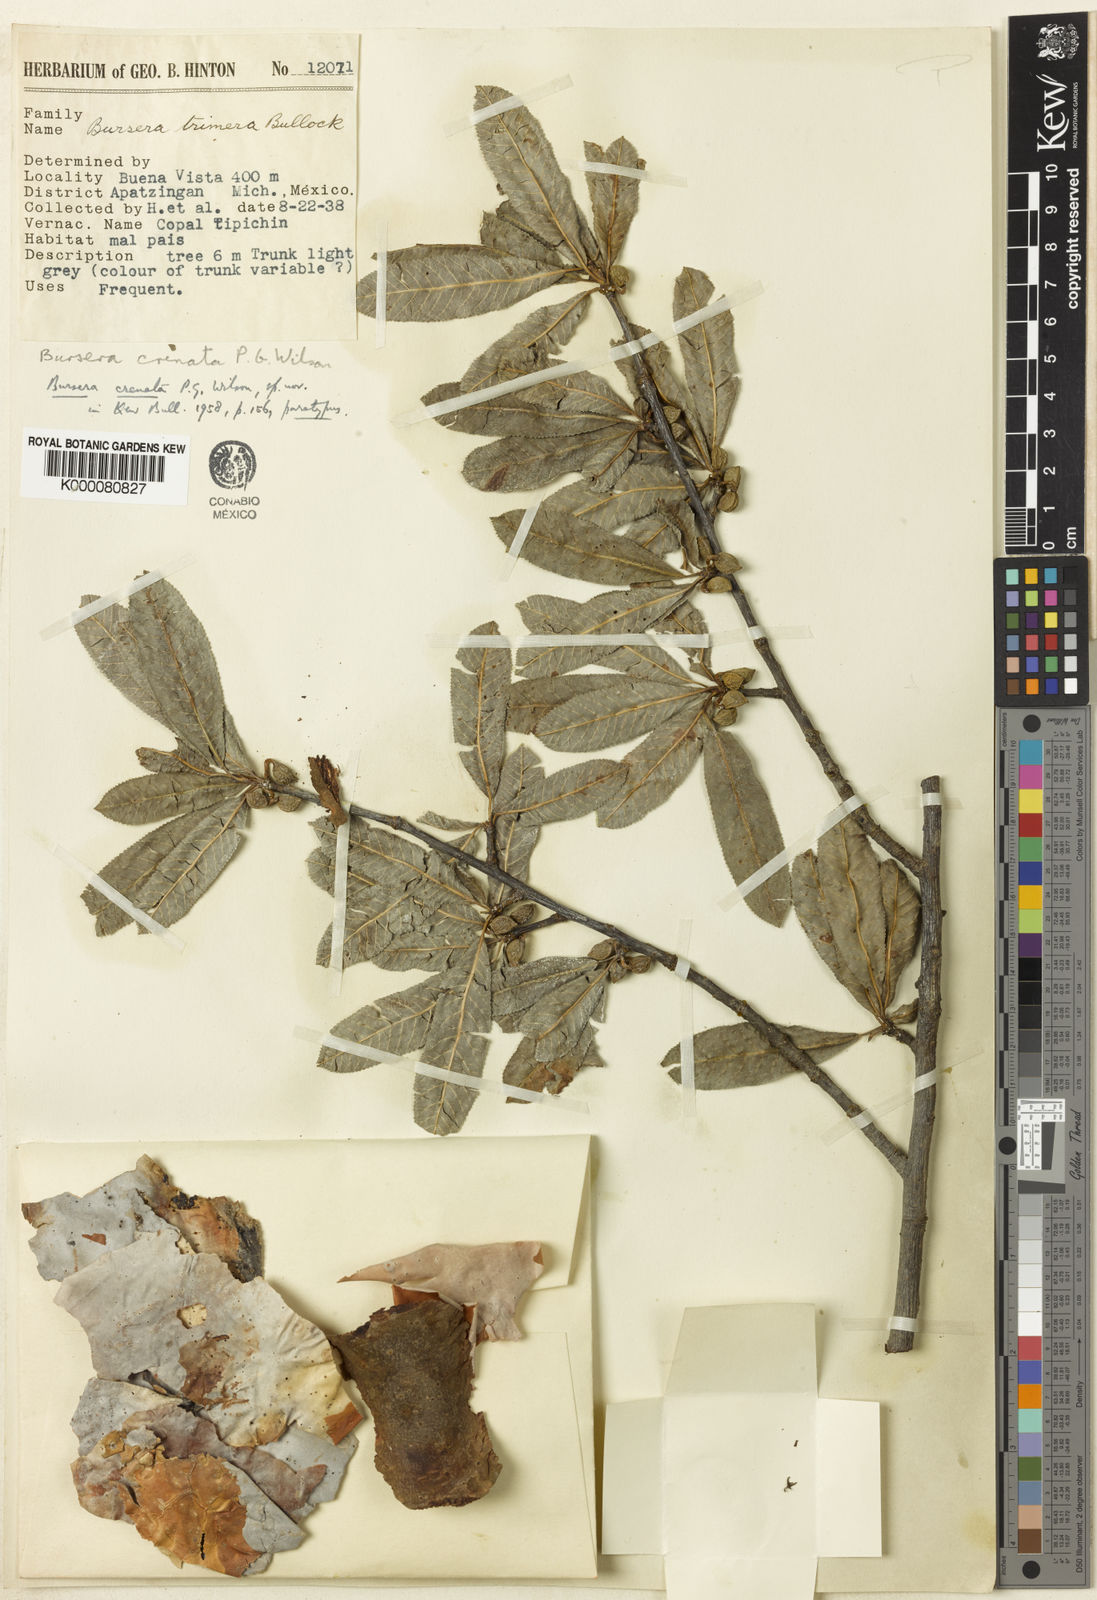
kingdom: Plantae
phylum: Tracheophyta
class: Magnoliopsida
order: Sapindales
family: Burseraceae
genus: Bursera
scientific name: Bursera crenata
